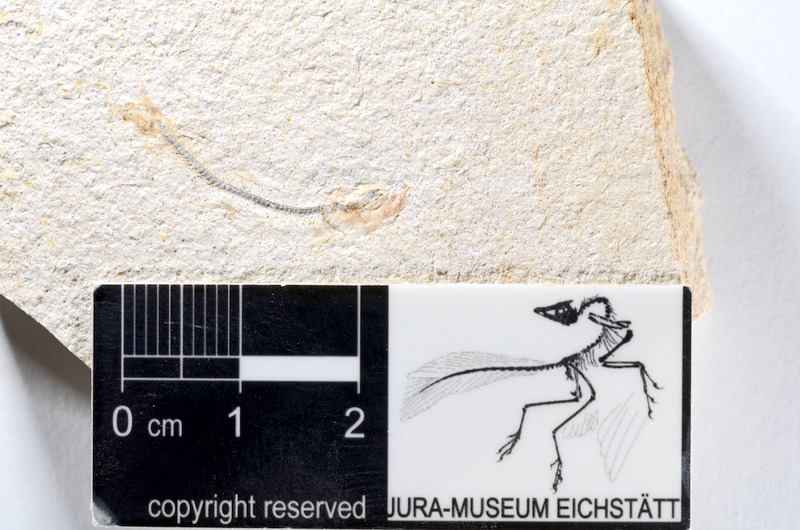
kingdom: Animalia
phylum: Chordata
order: Salmoniformes
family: Orthogonikleithridae
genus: Orthogonikleithrus
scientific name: Orthogonikleithrus hoelli
